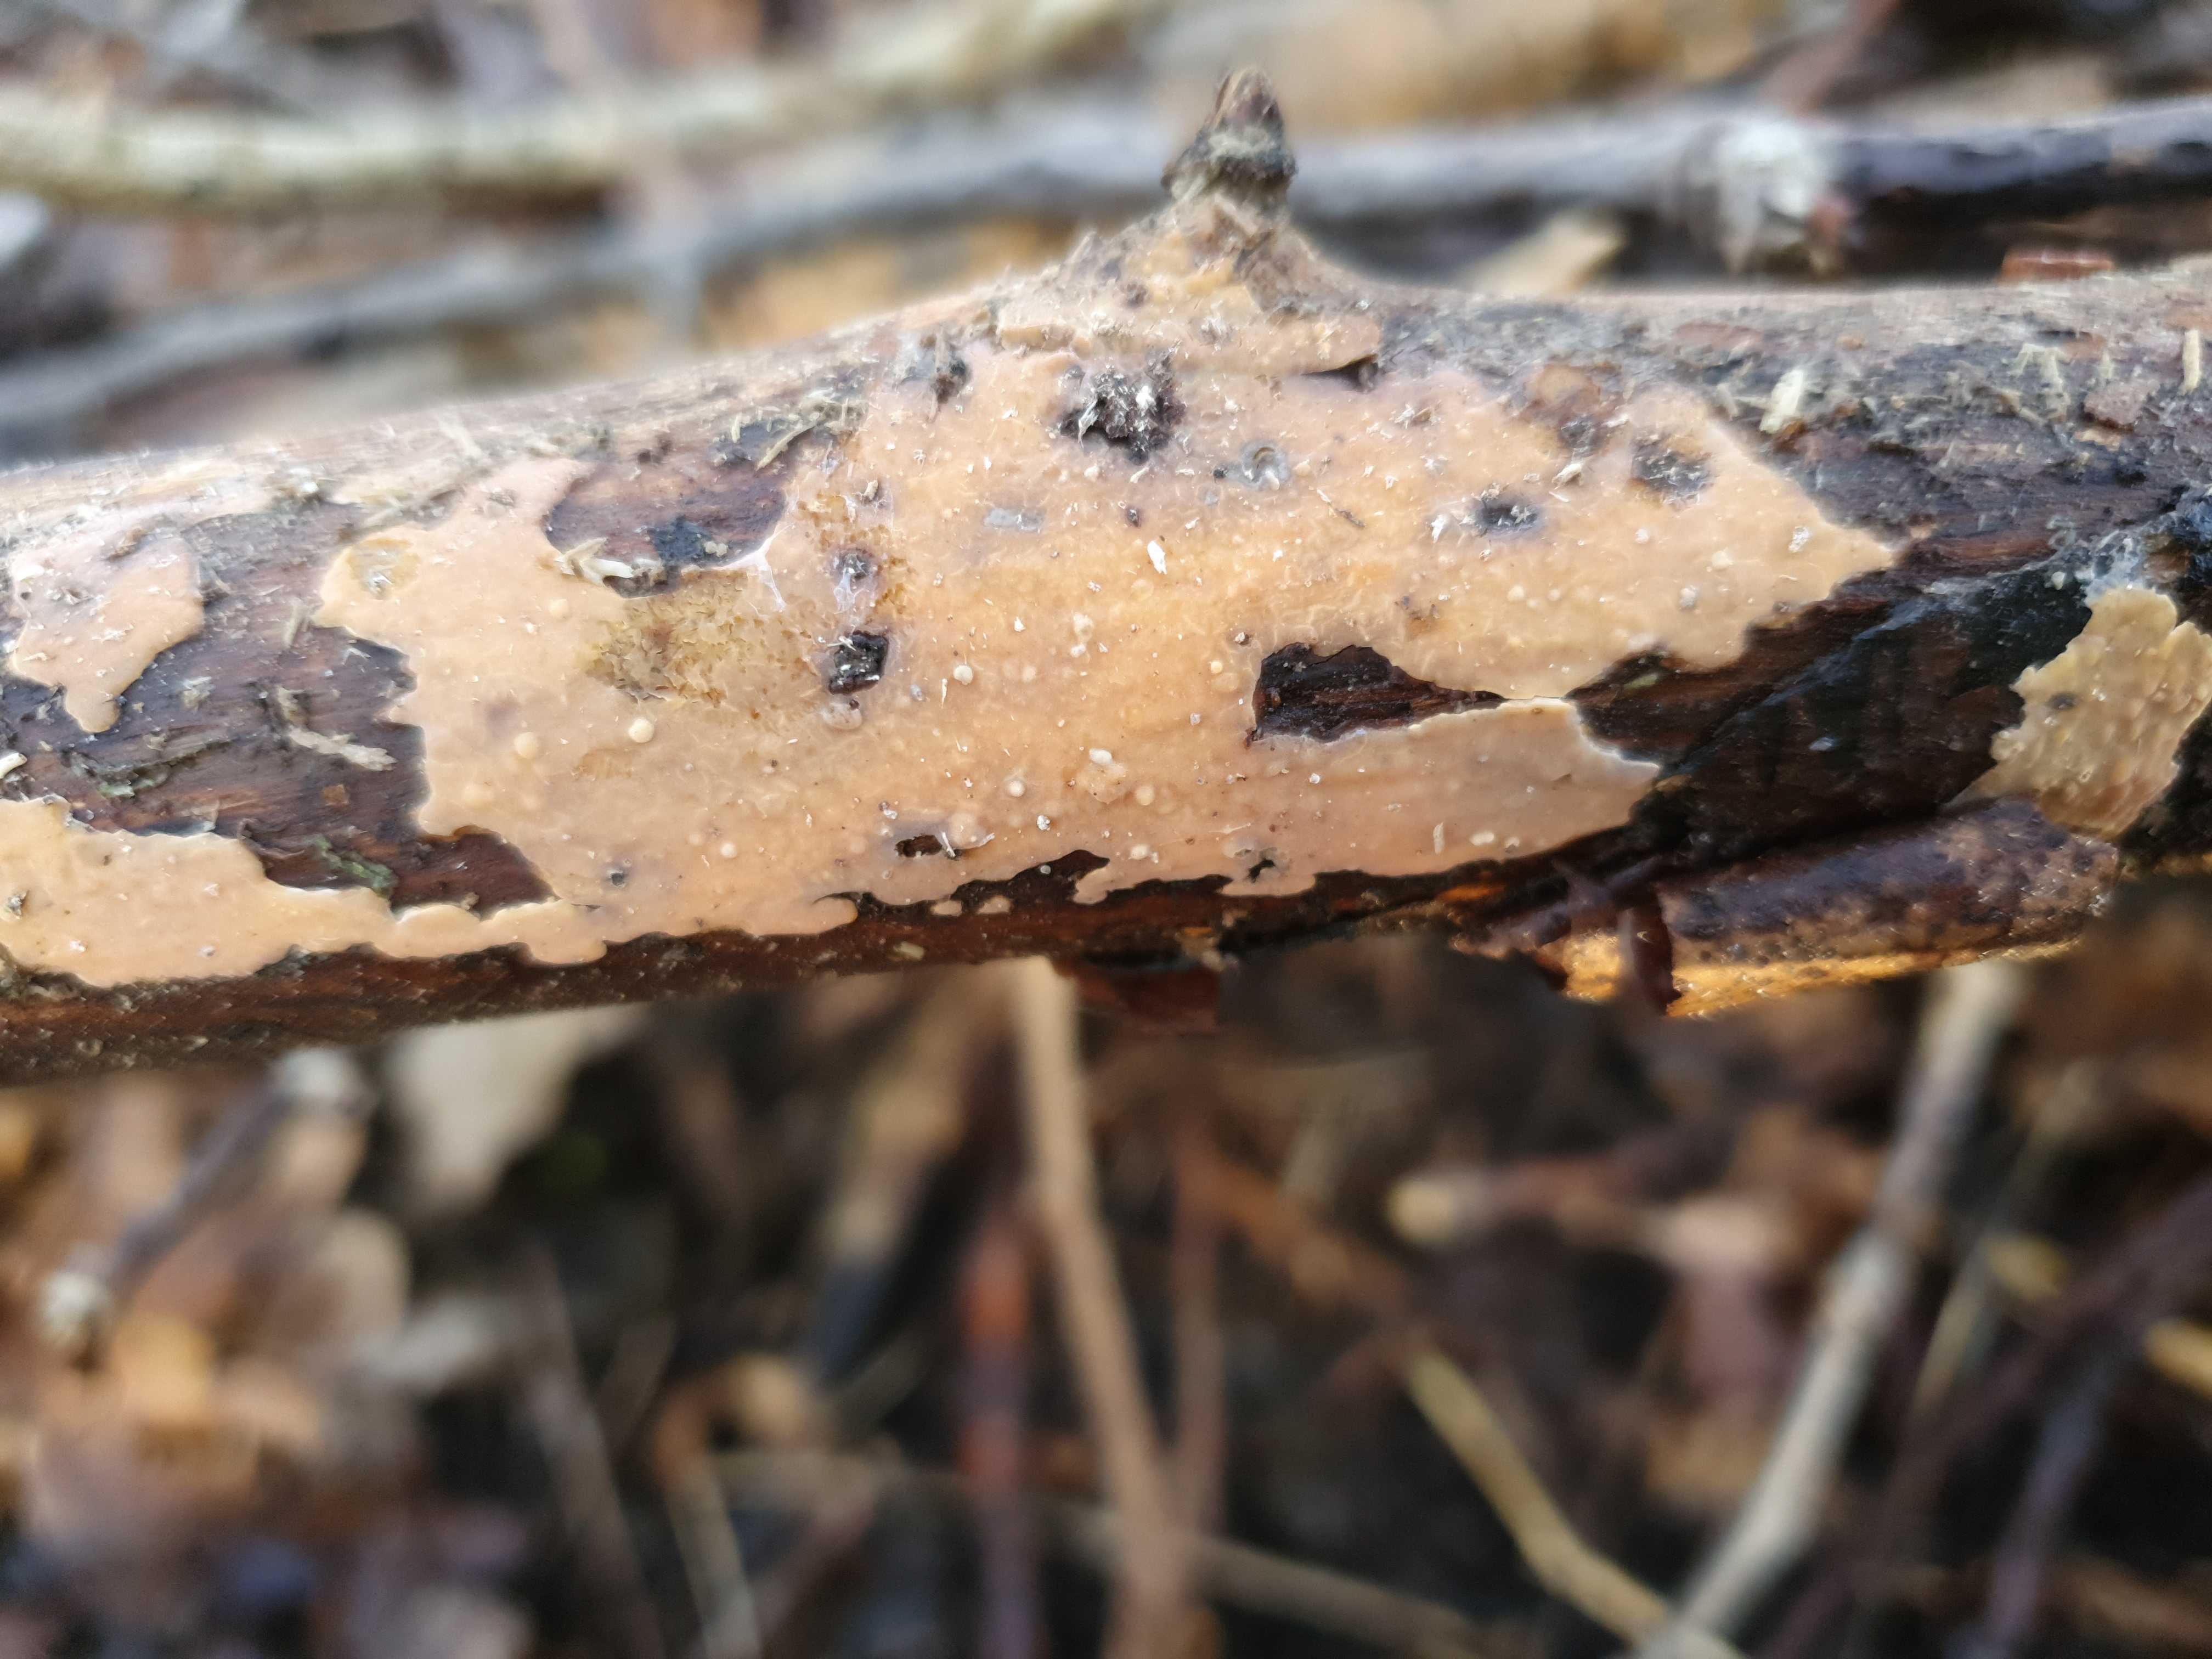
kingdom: Fungi
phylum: Basidiomycota
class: Agaricomycetes
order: Russulales
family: Peniophoraceae
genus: Peniophora
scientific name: Peniophora incarnata
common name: laksefarvet voksskind
